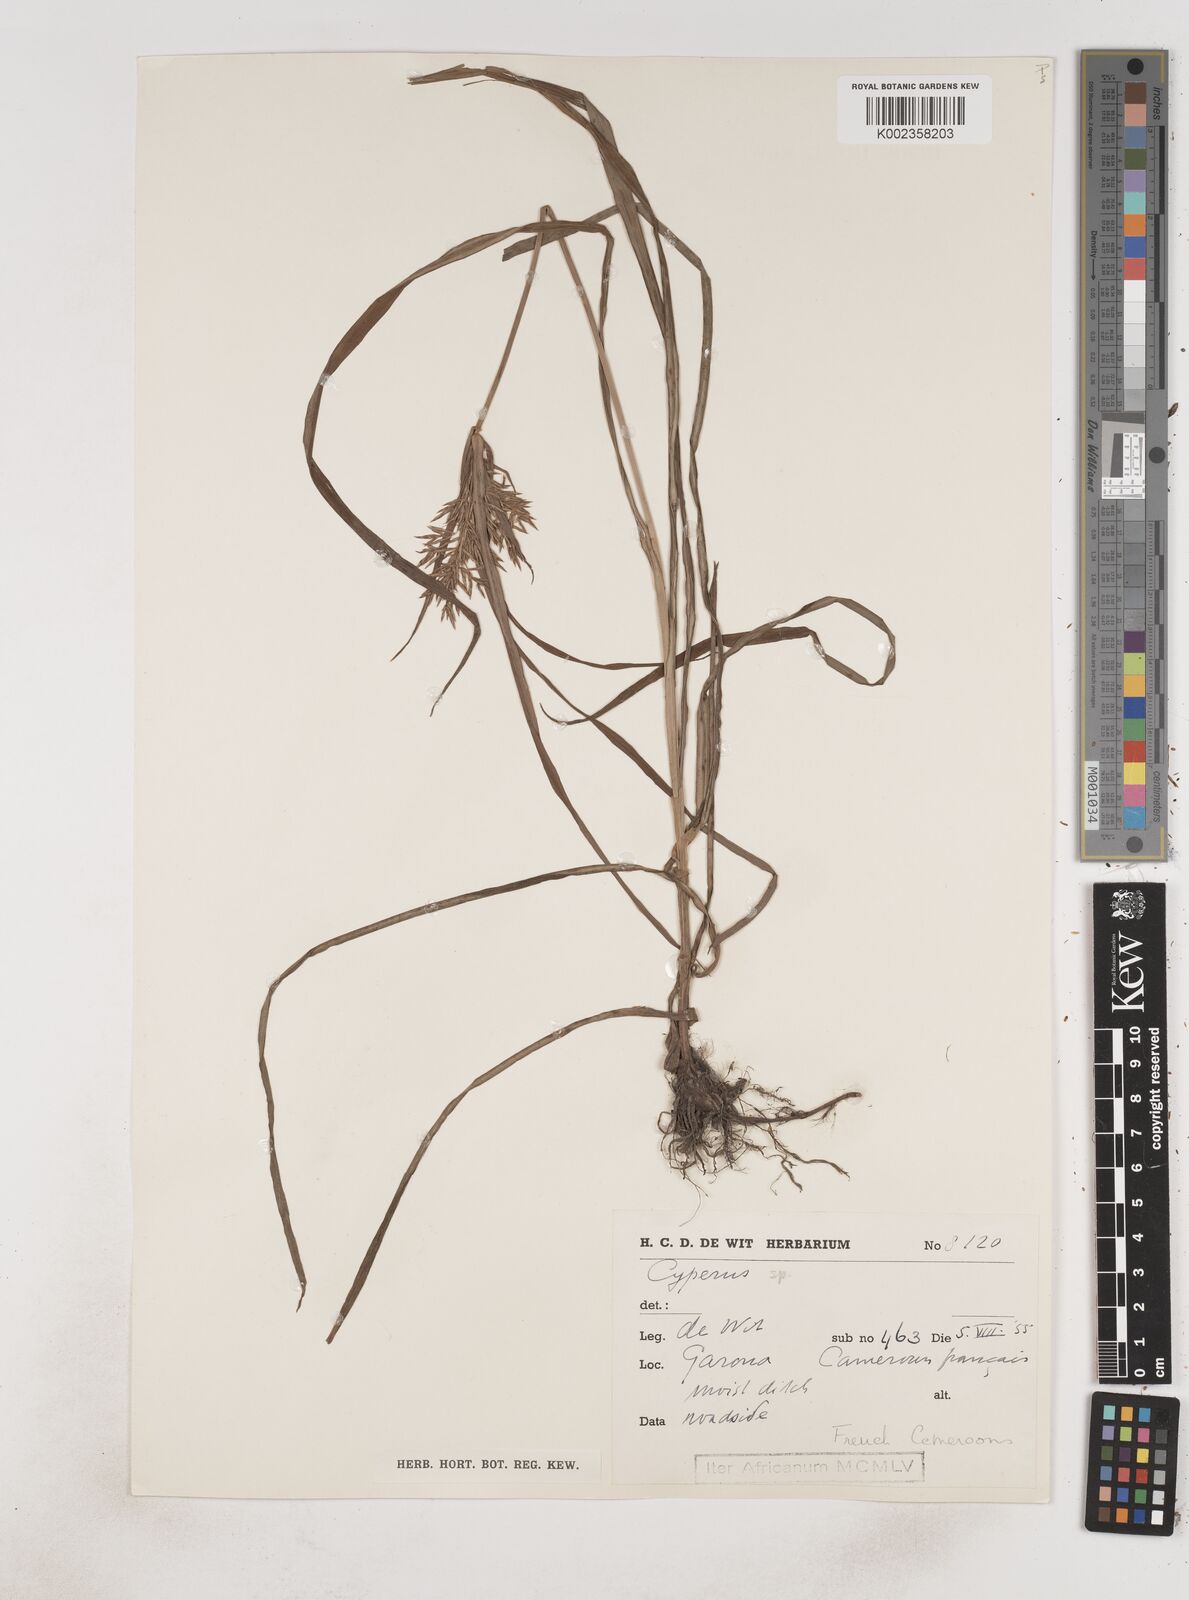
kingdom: Plantae
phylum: Tracheophyta
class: Liliopsida
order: Poales
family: Cyperaceae
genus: Cyperus
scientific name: Cyperus longus
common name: Galingale
